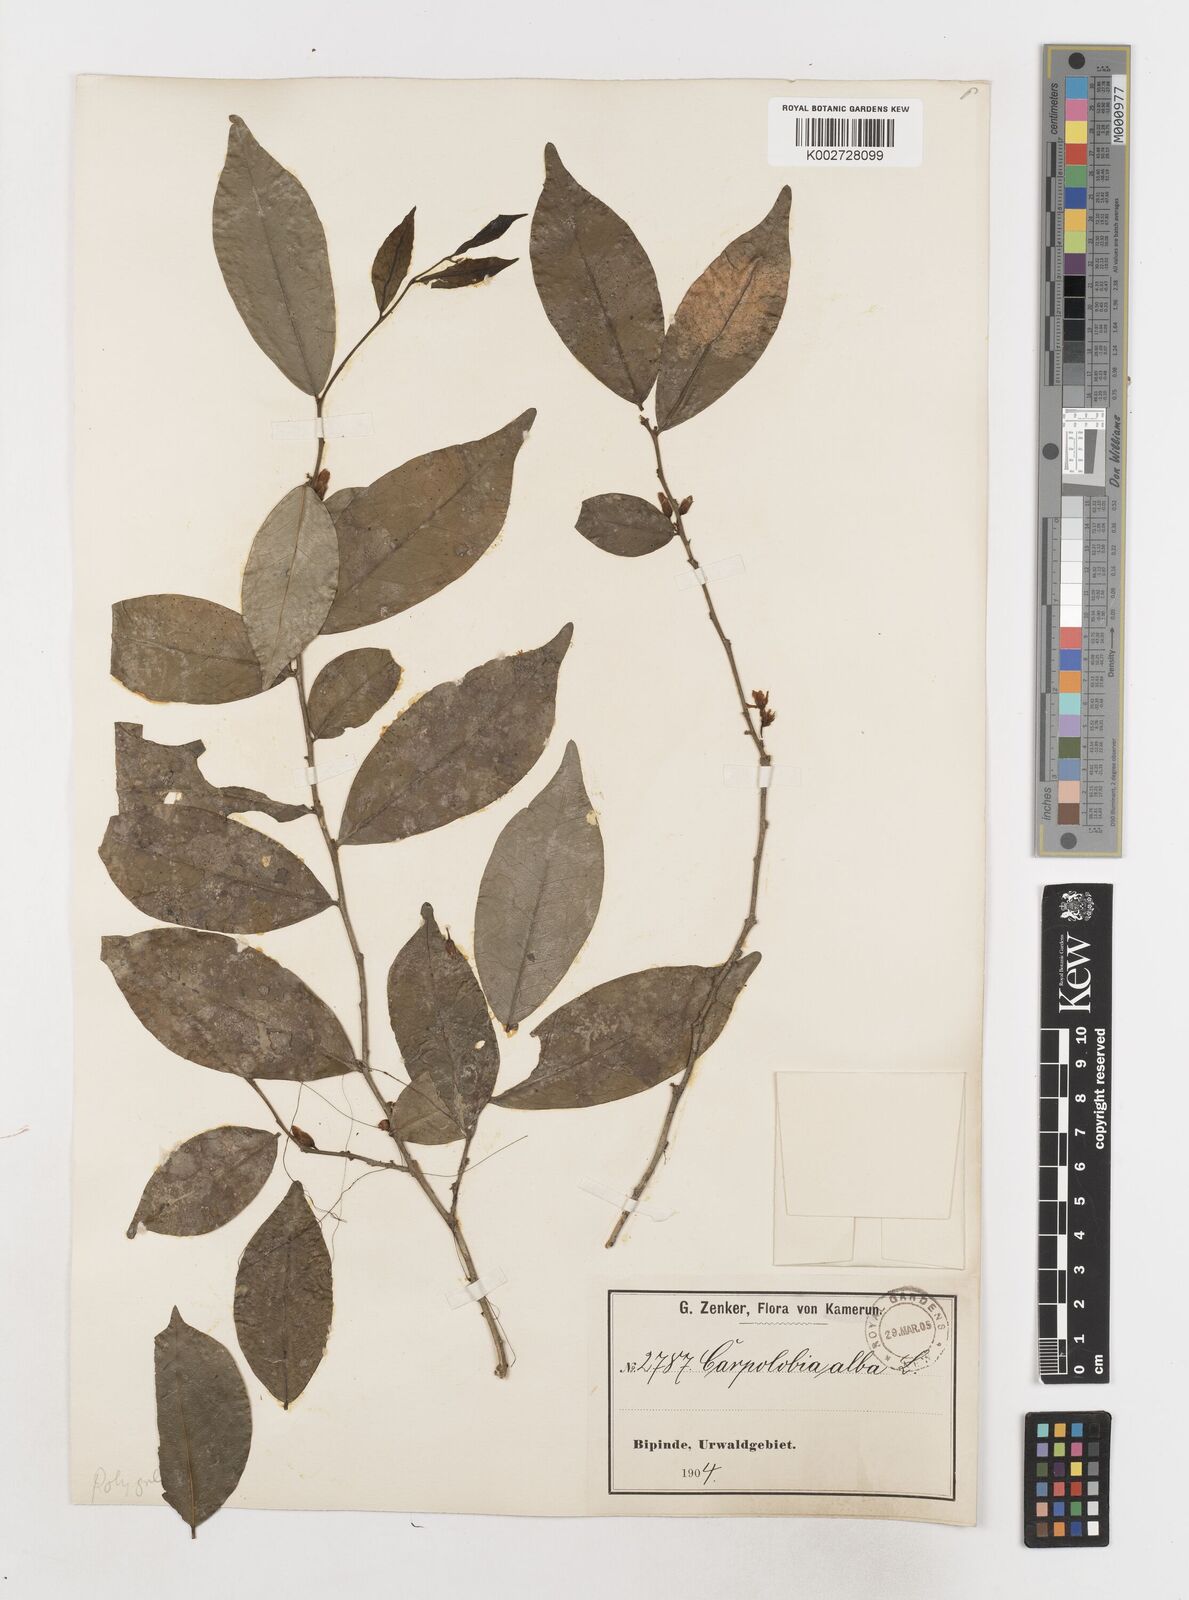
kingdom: Plantae
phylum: Tracheophyta
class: Magnoliopsida
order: Fabales
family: Polygalaceae
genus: Carpolobia
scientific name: Carpolobia alba
